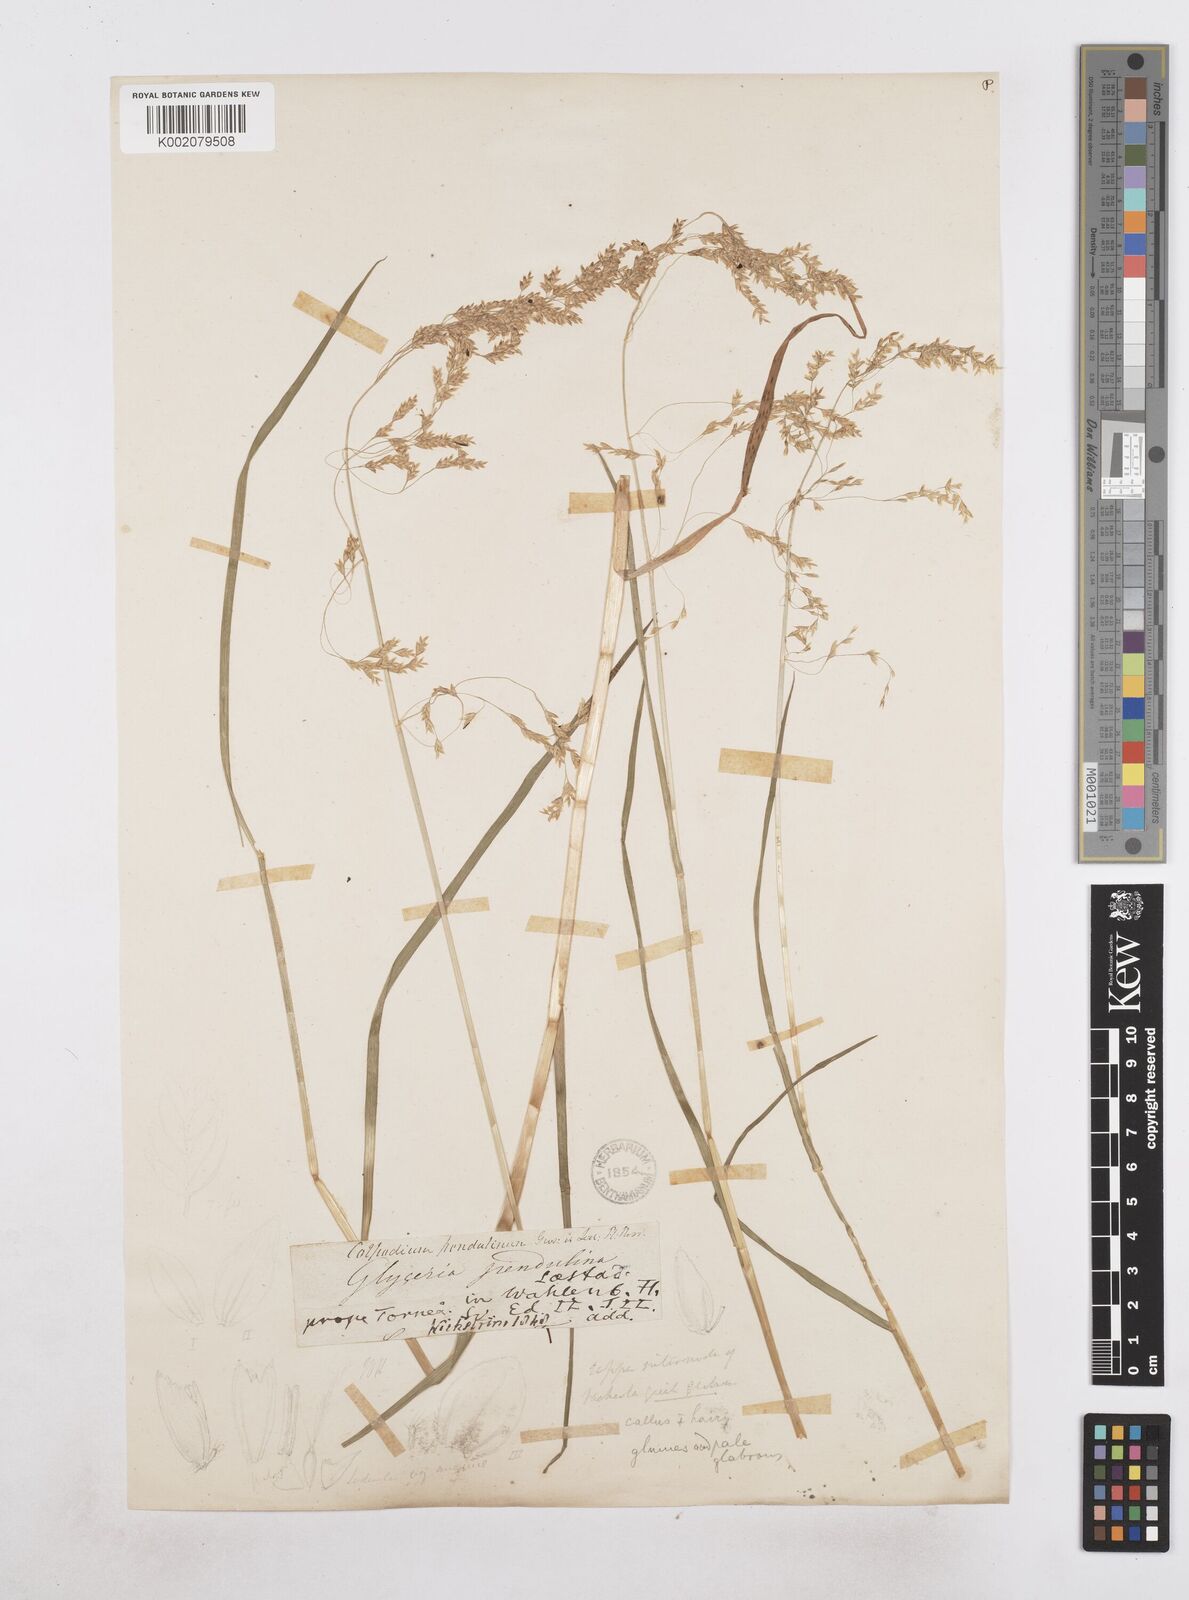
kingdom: Plantae
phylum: Tracheophyta
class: Liliopsida
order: Poales
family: Poaceae
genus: Dupontia
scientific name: Dupontia fulva
